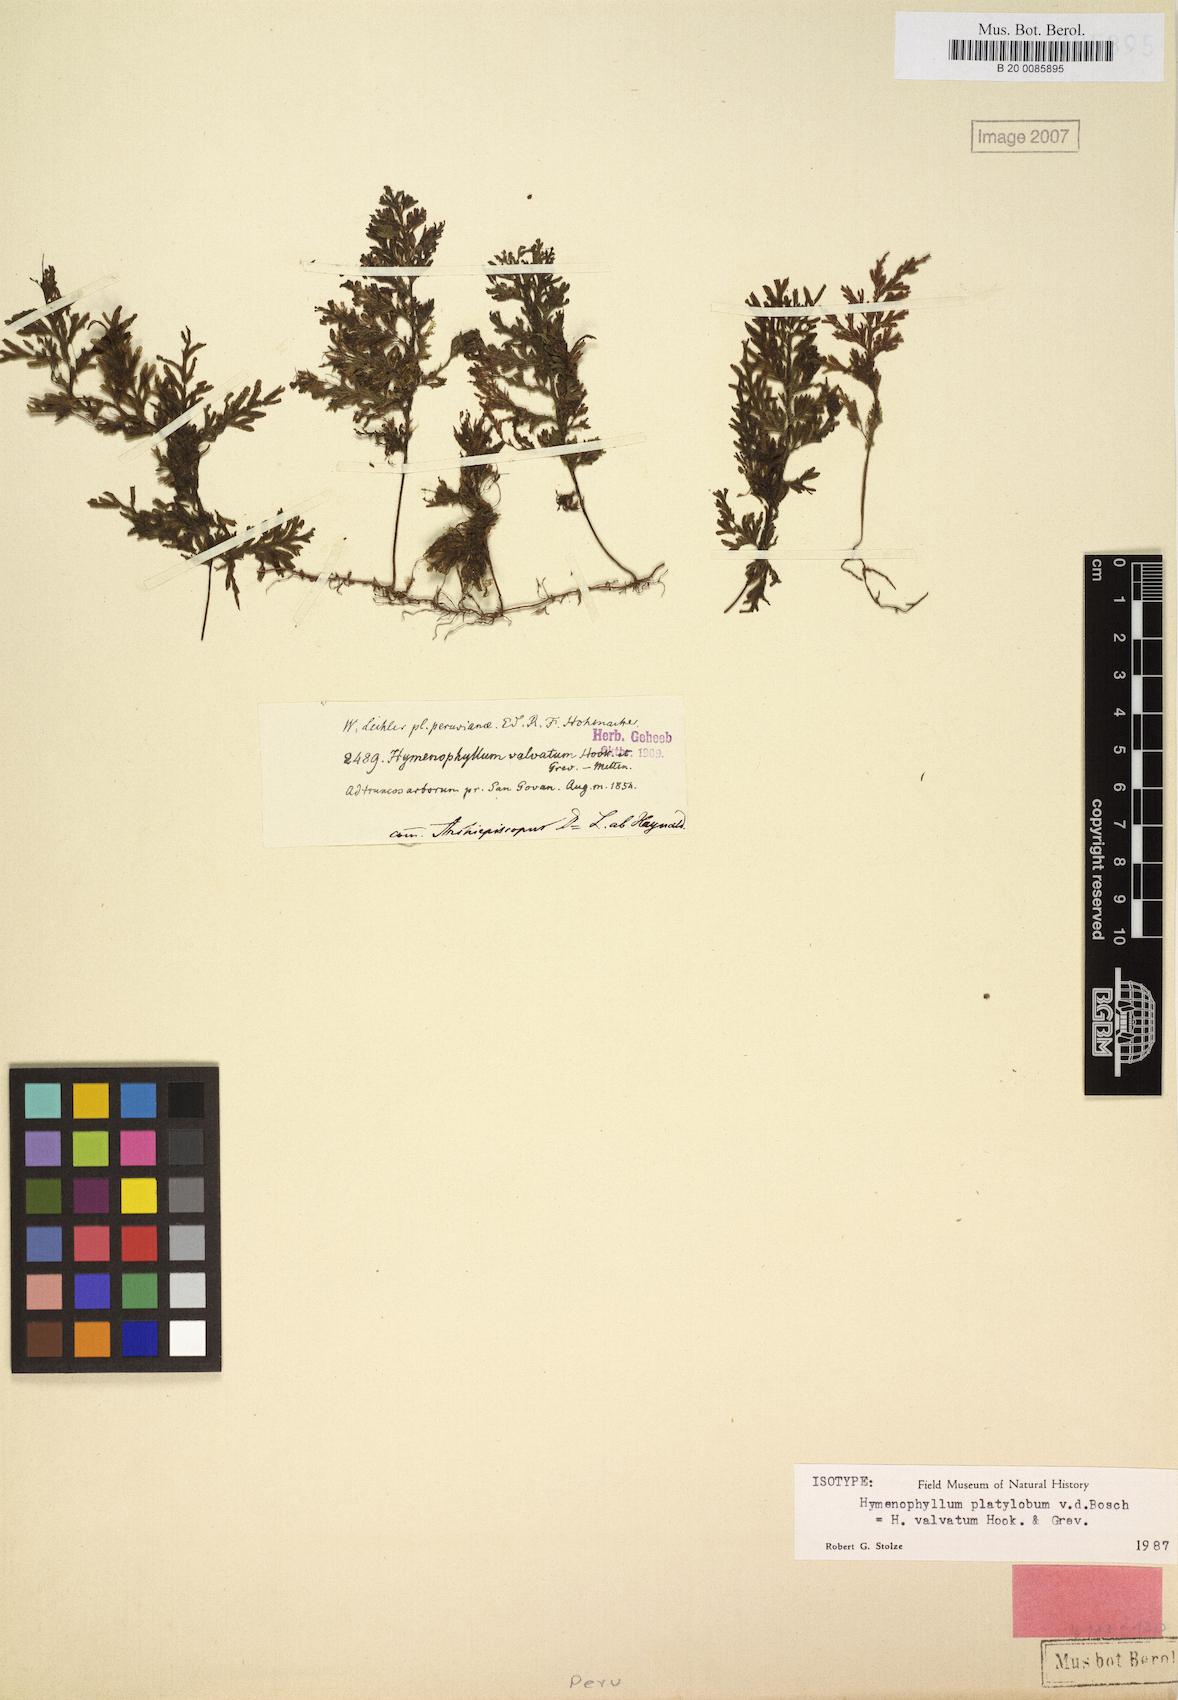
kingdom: Plantae
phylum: Tracheophyta
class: Polypodiopsida
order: Hymenophyllales
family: Hymenophyllaceae
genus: Hymenophyllum
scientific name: Hymenophyllum valvatum
